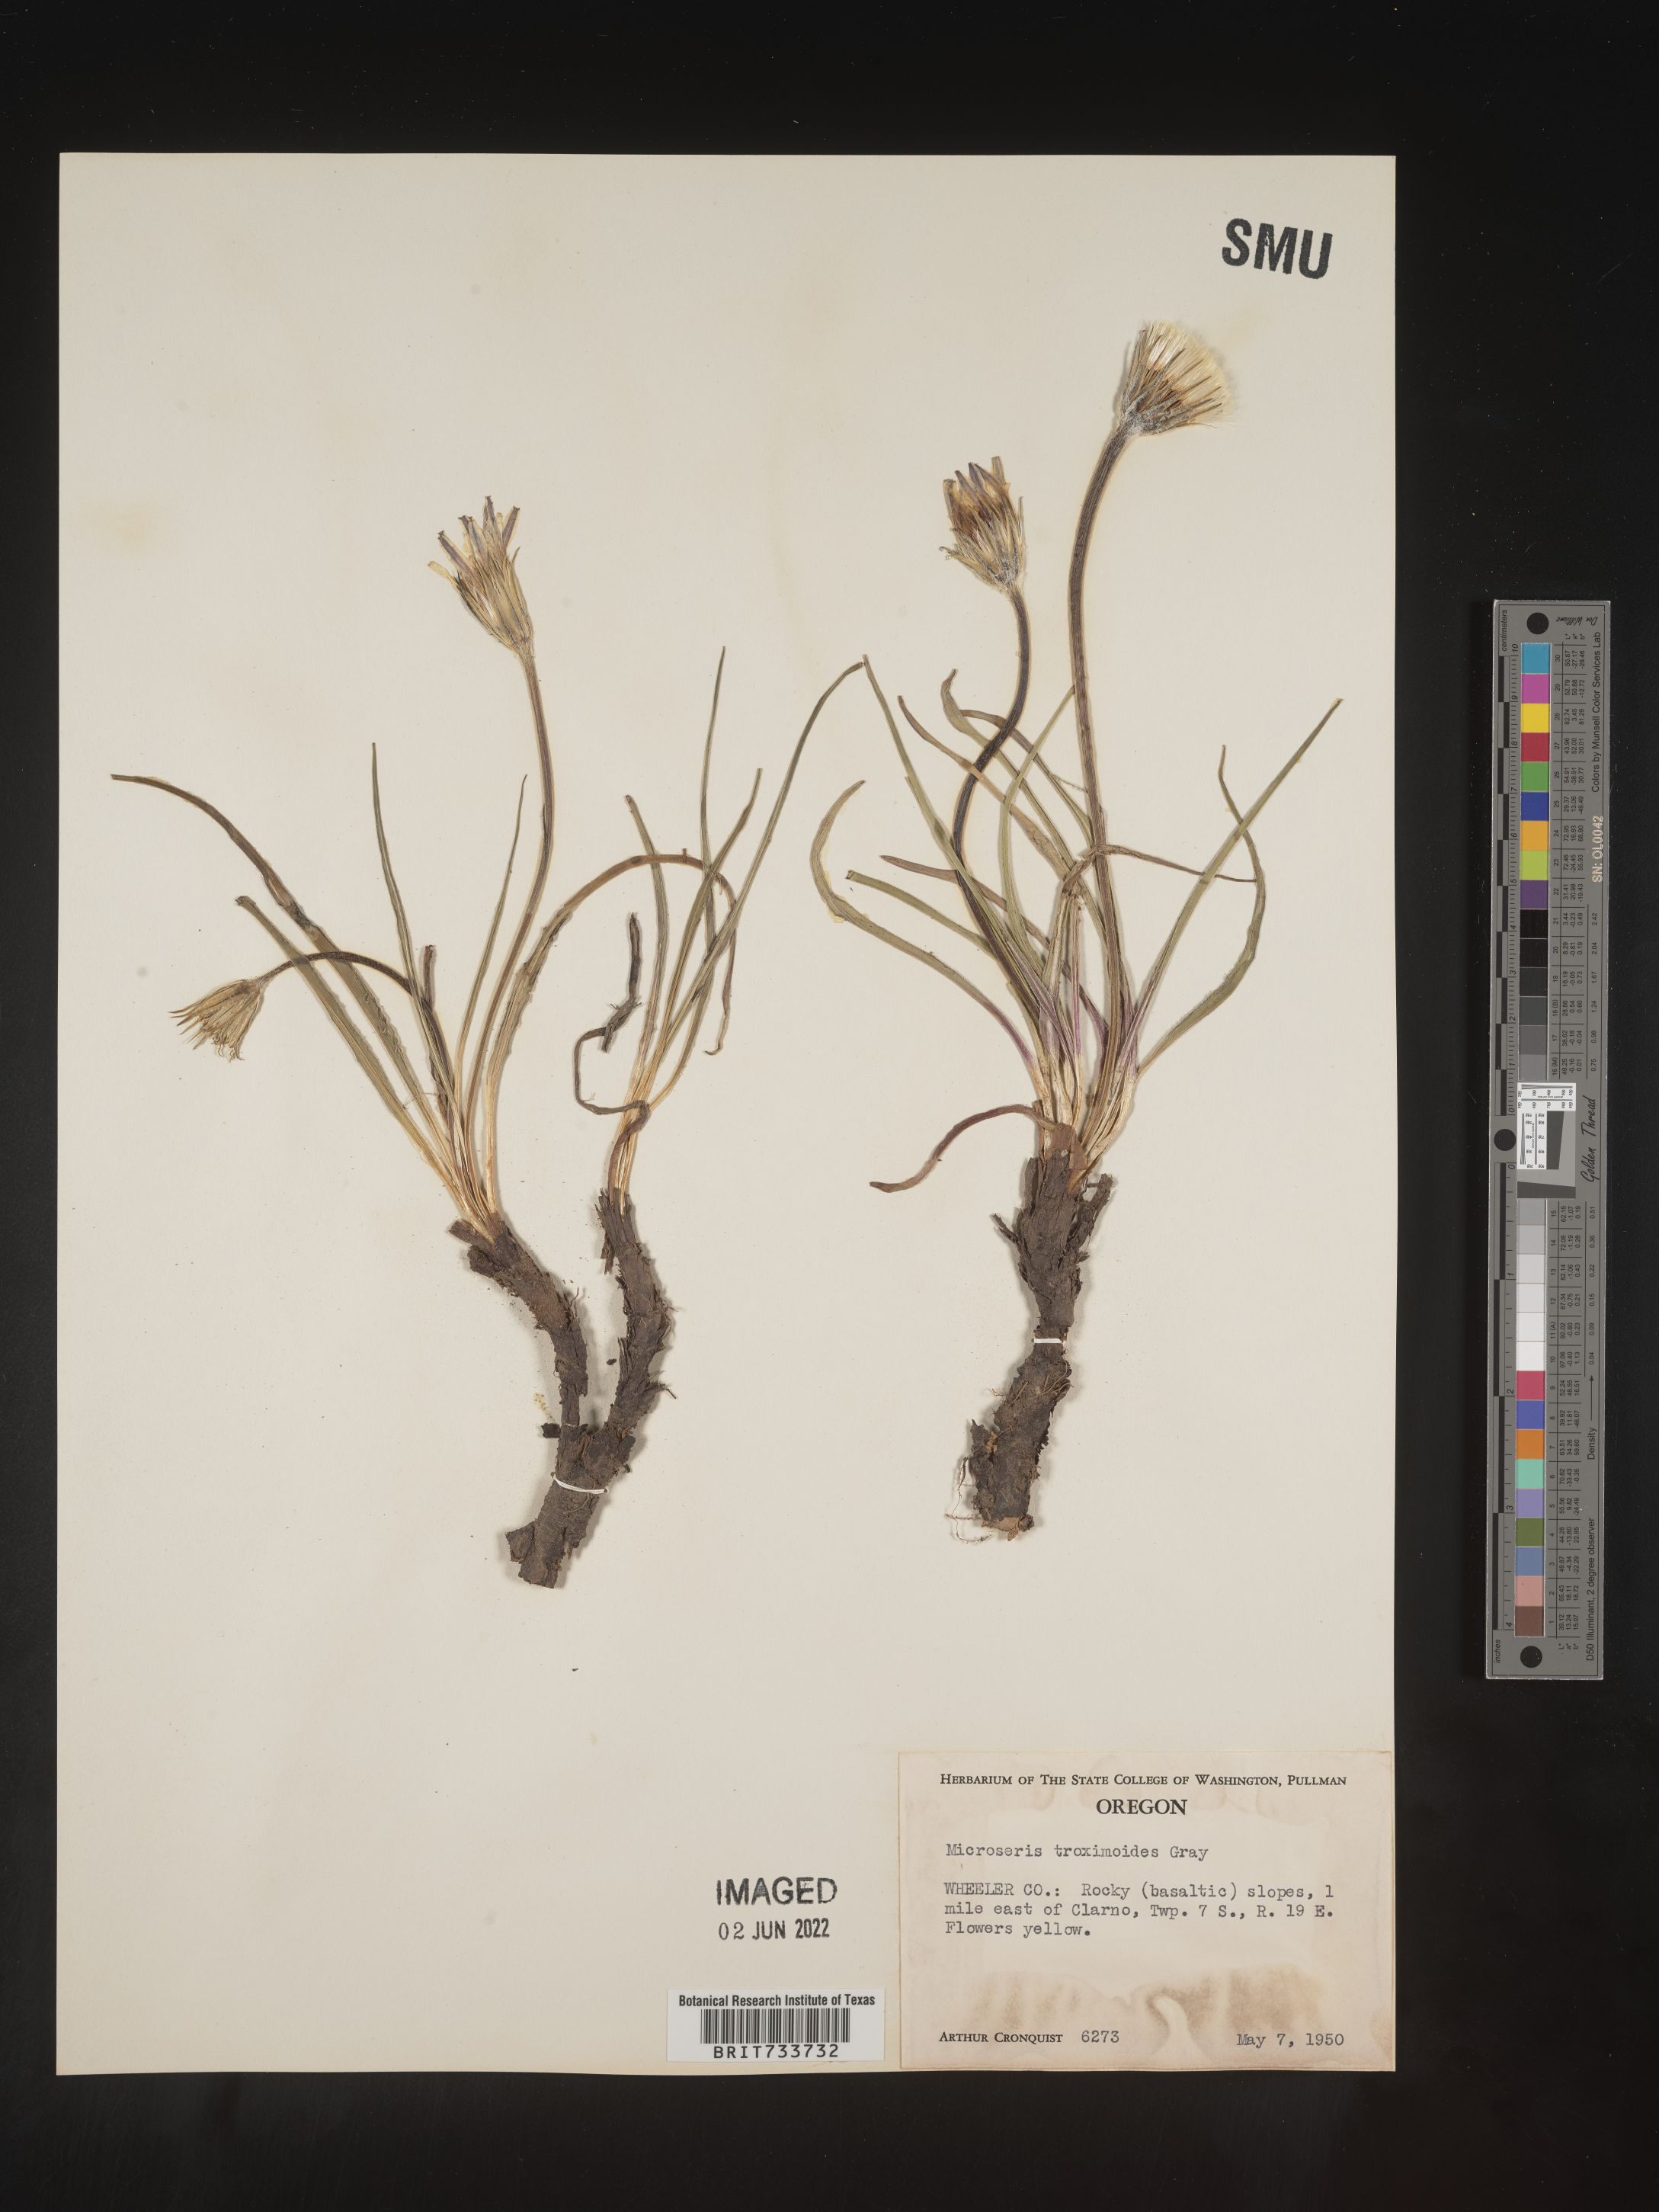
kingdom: Plantae
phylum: Tracheophyta
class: Magnoliopsida
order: Asterales
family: Asteraceae
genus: Microseris
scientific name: Microseris
